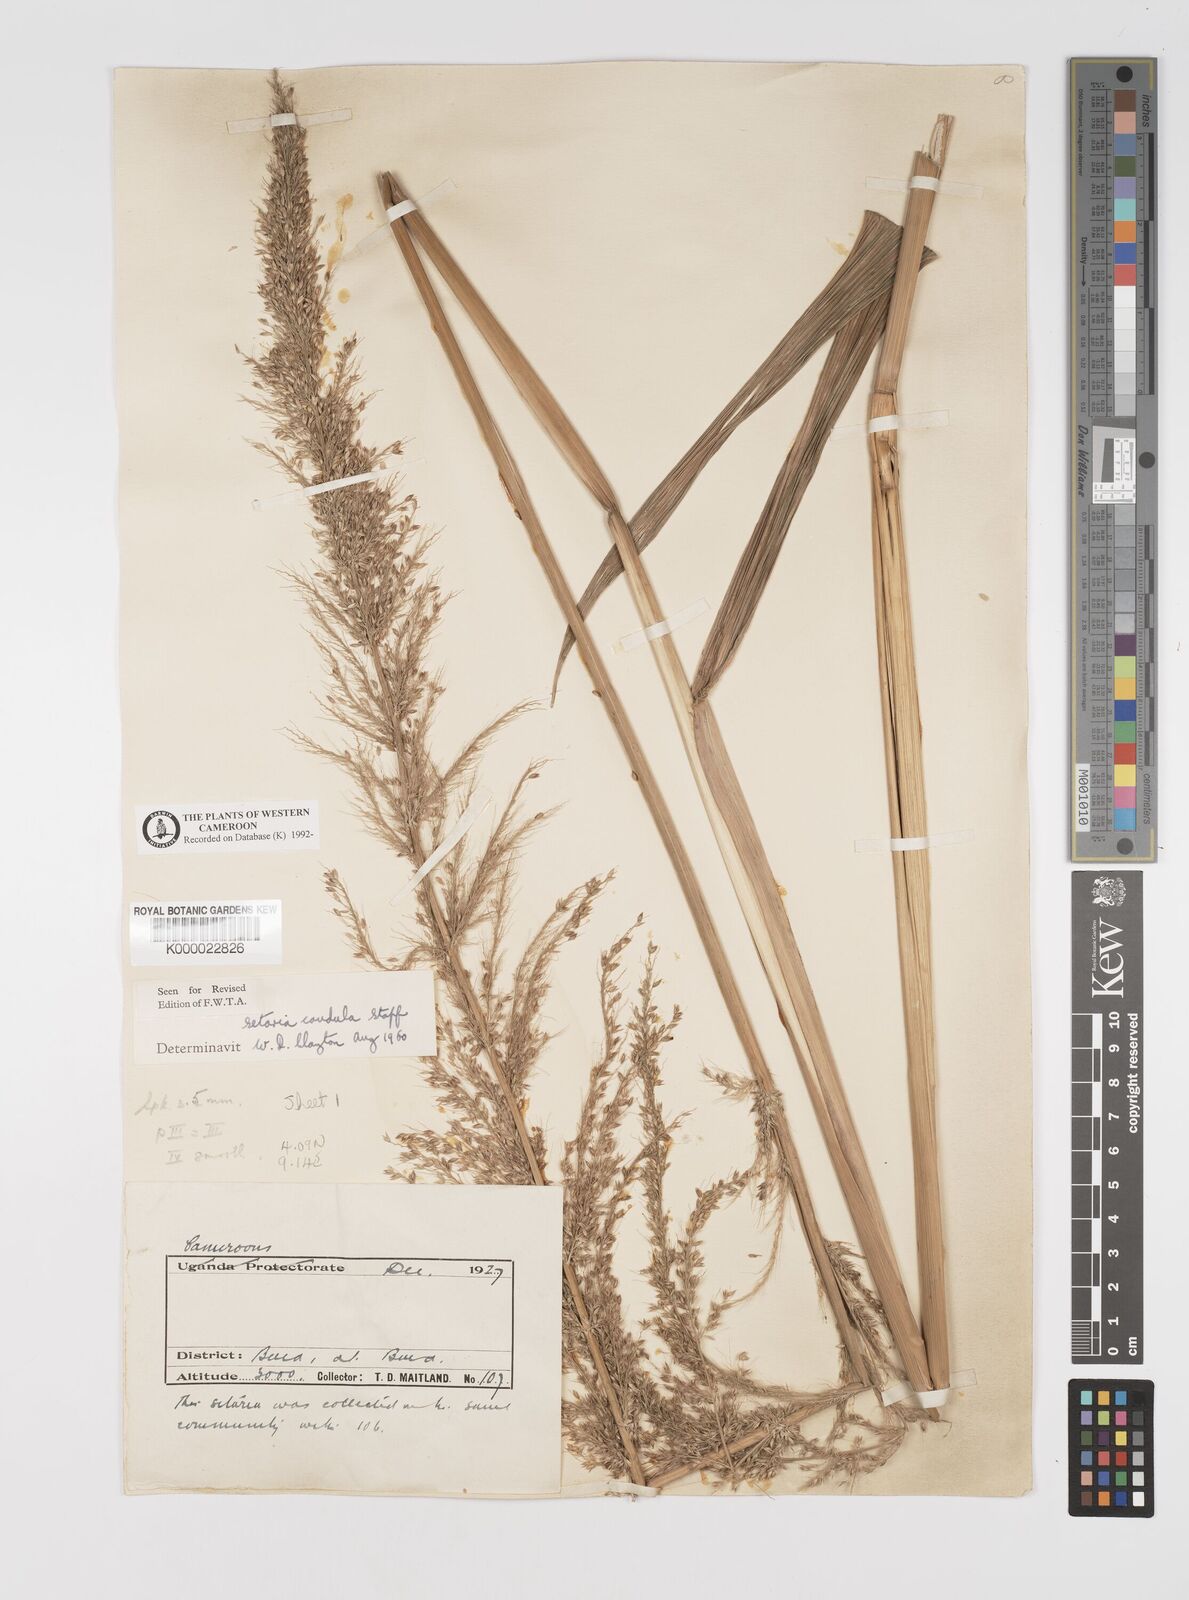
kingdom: Plantae
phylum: Tracheophyta
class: Liliopsida
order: Poales
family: Poaceae
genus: Setaria
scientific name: Setaria poiretiana
